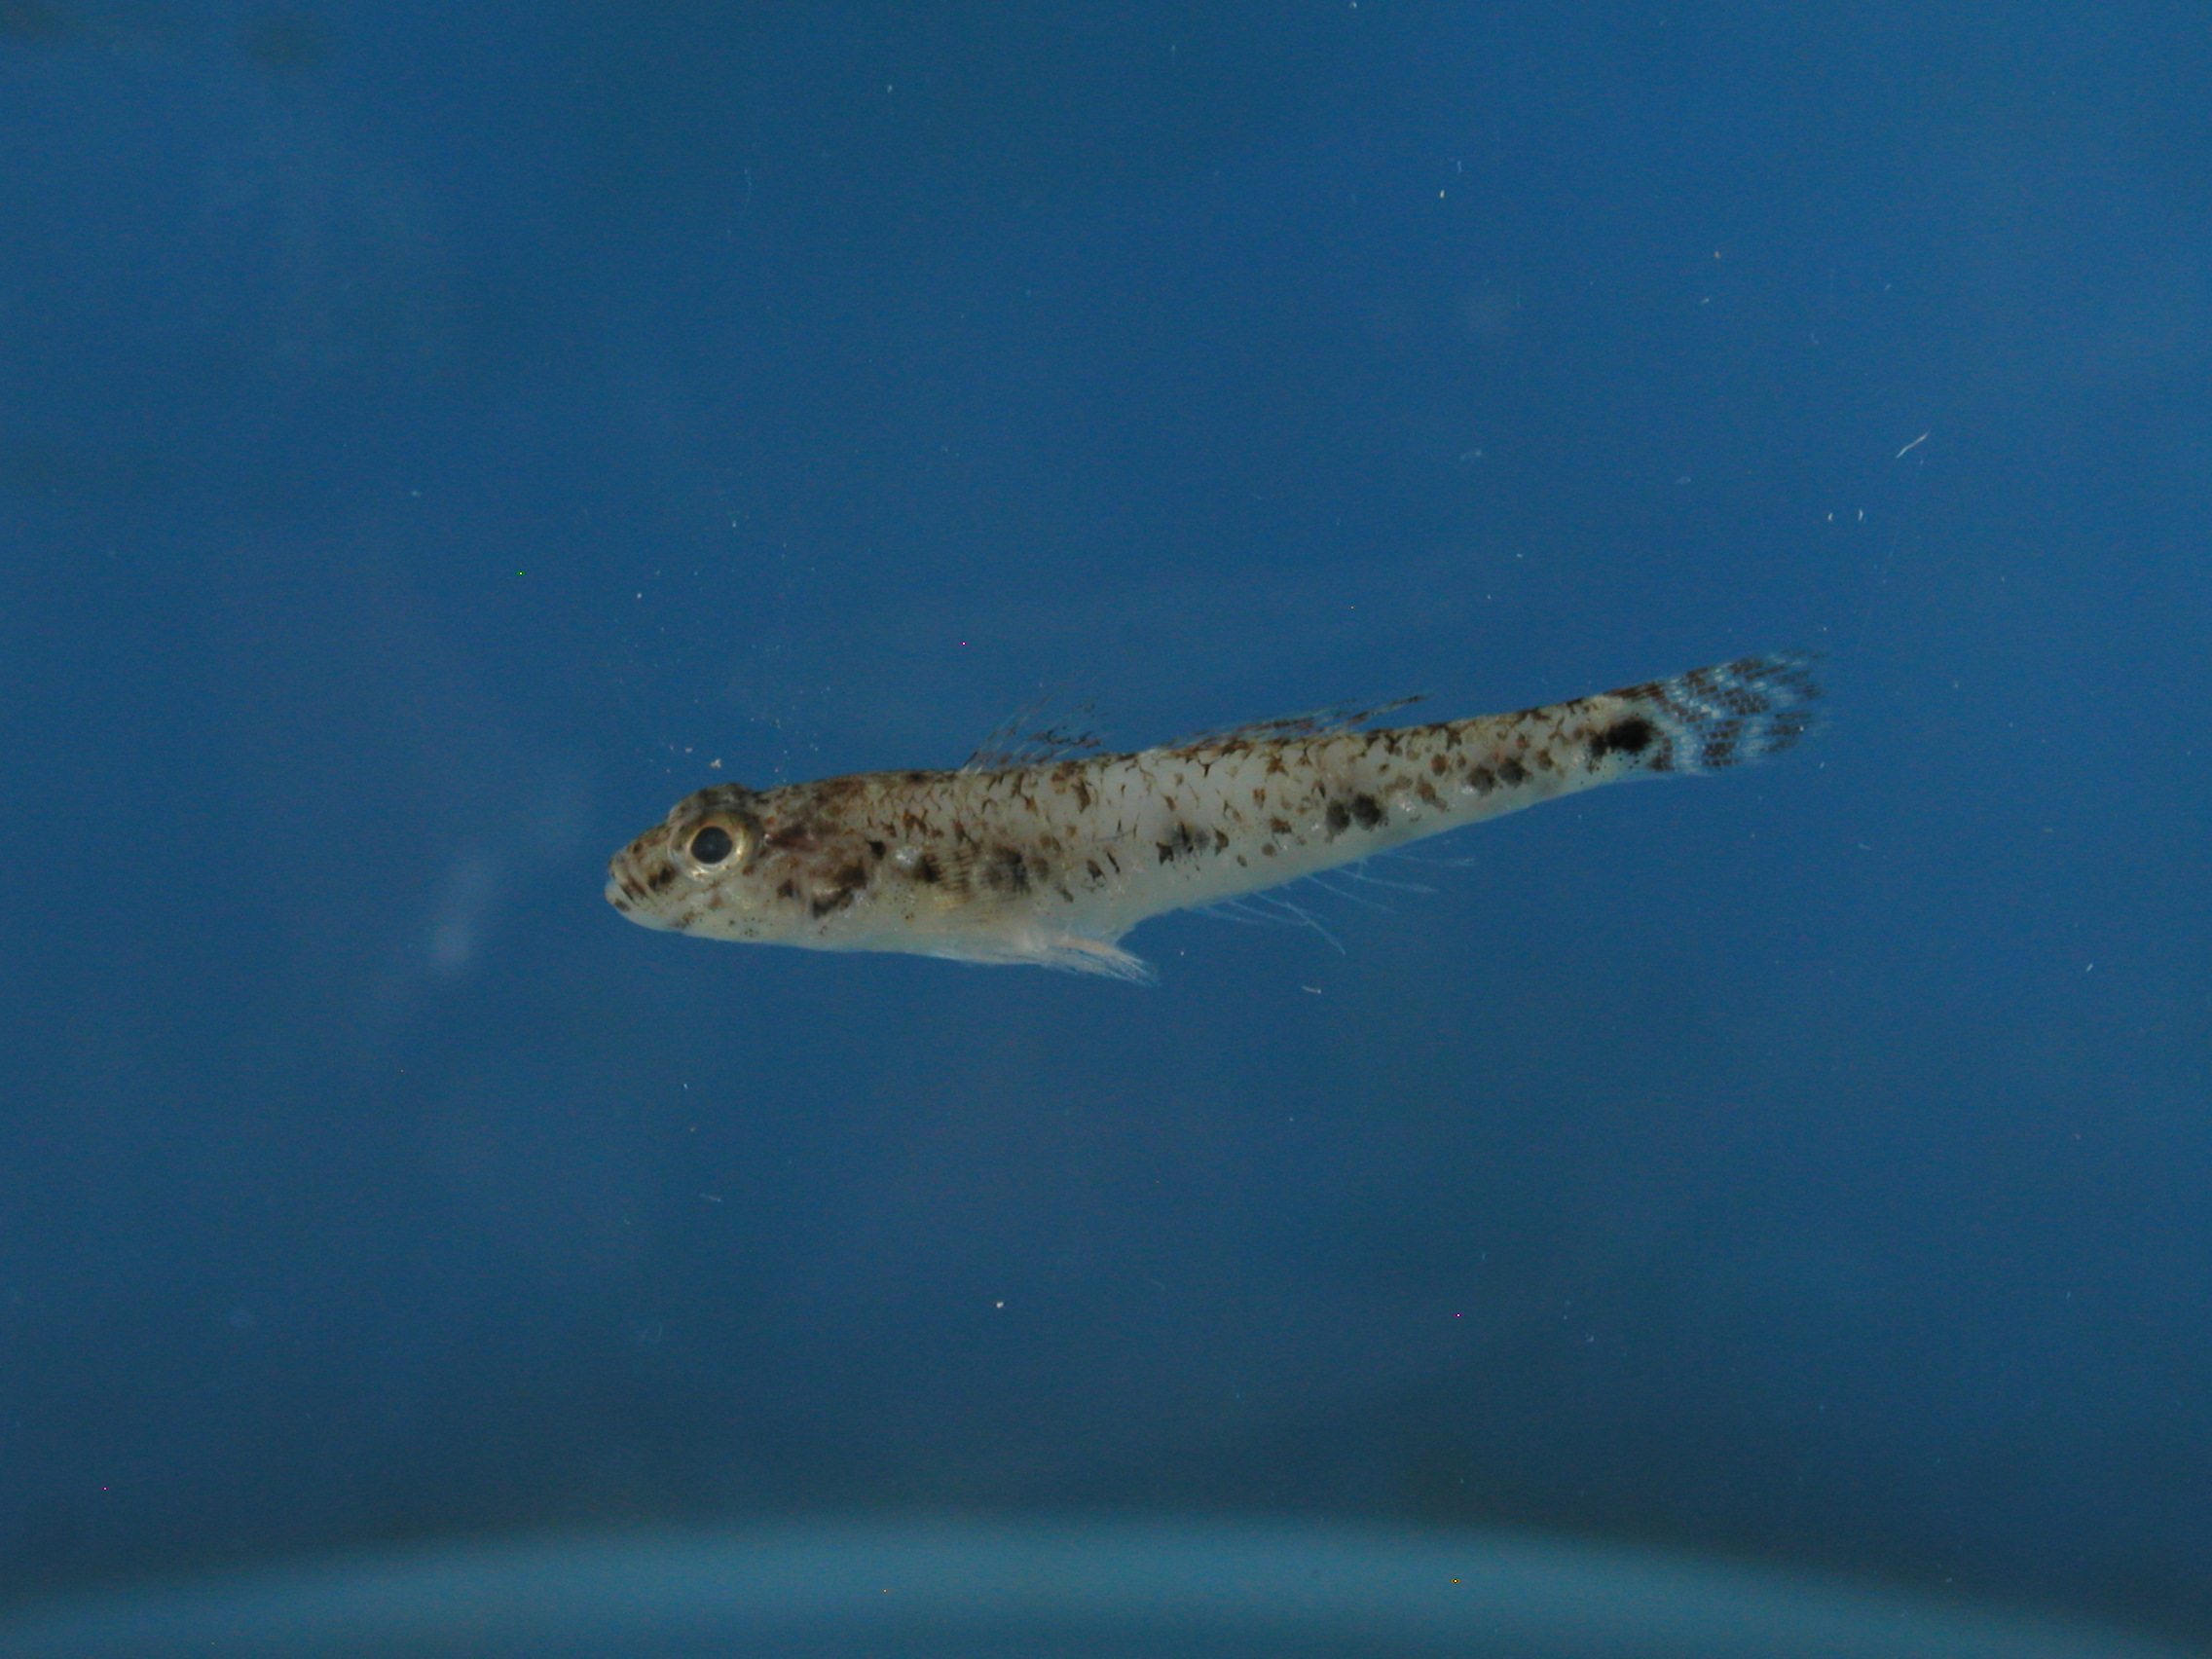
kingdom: Animalia
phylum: Chordata
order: Perciformes
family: Gobiidae
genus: Favonigobius
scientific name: Favonigobius reichei
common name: Tropical sand goby
